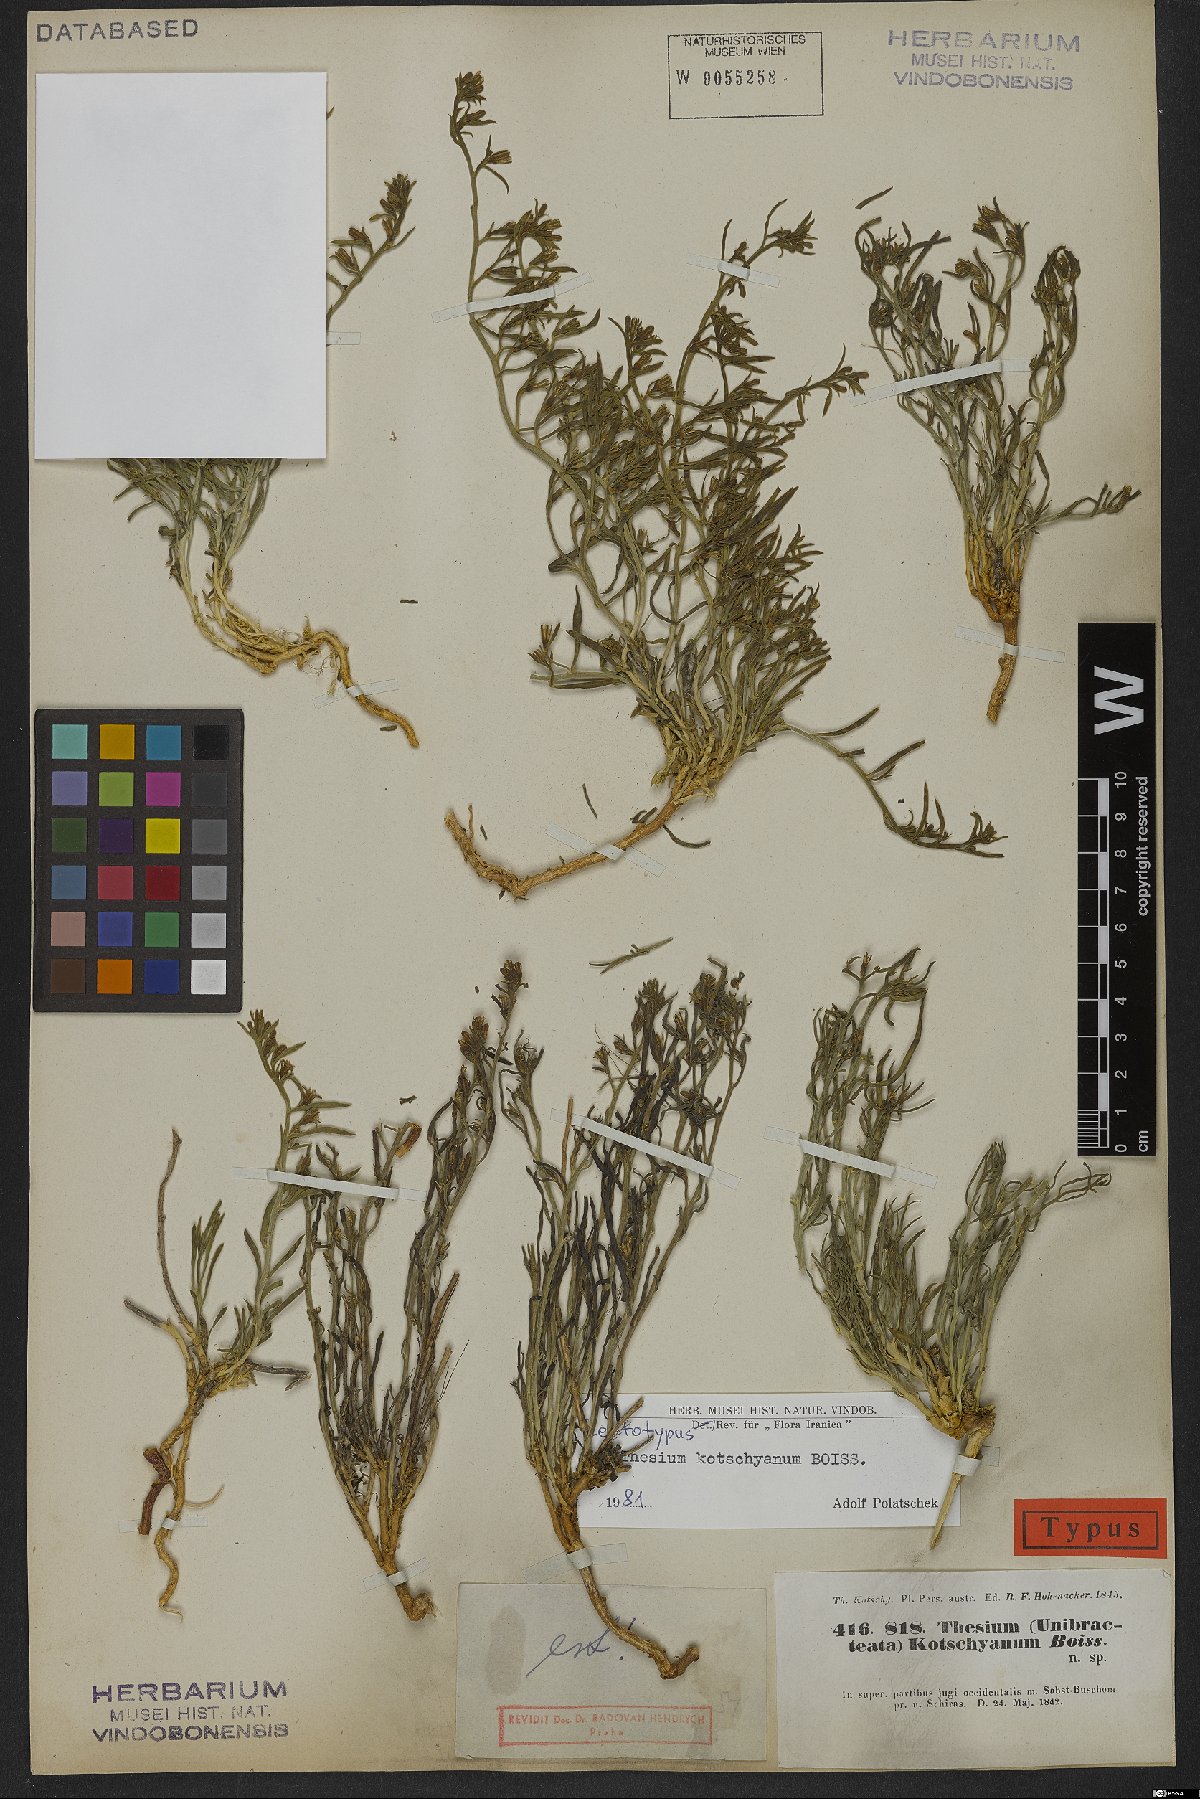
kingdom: Plantae
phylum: Tracheophyta
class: Magnoliopsida
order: Santalales
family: Thesiaceae
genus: Thesium
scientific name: Thesium kotschyanum
